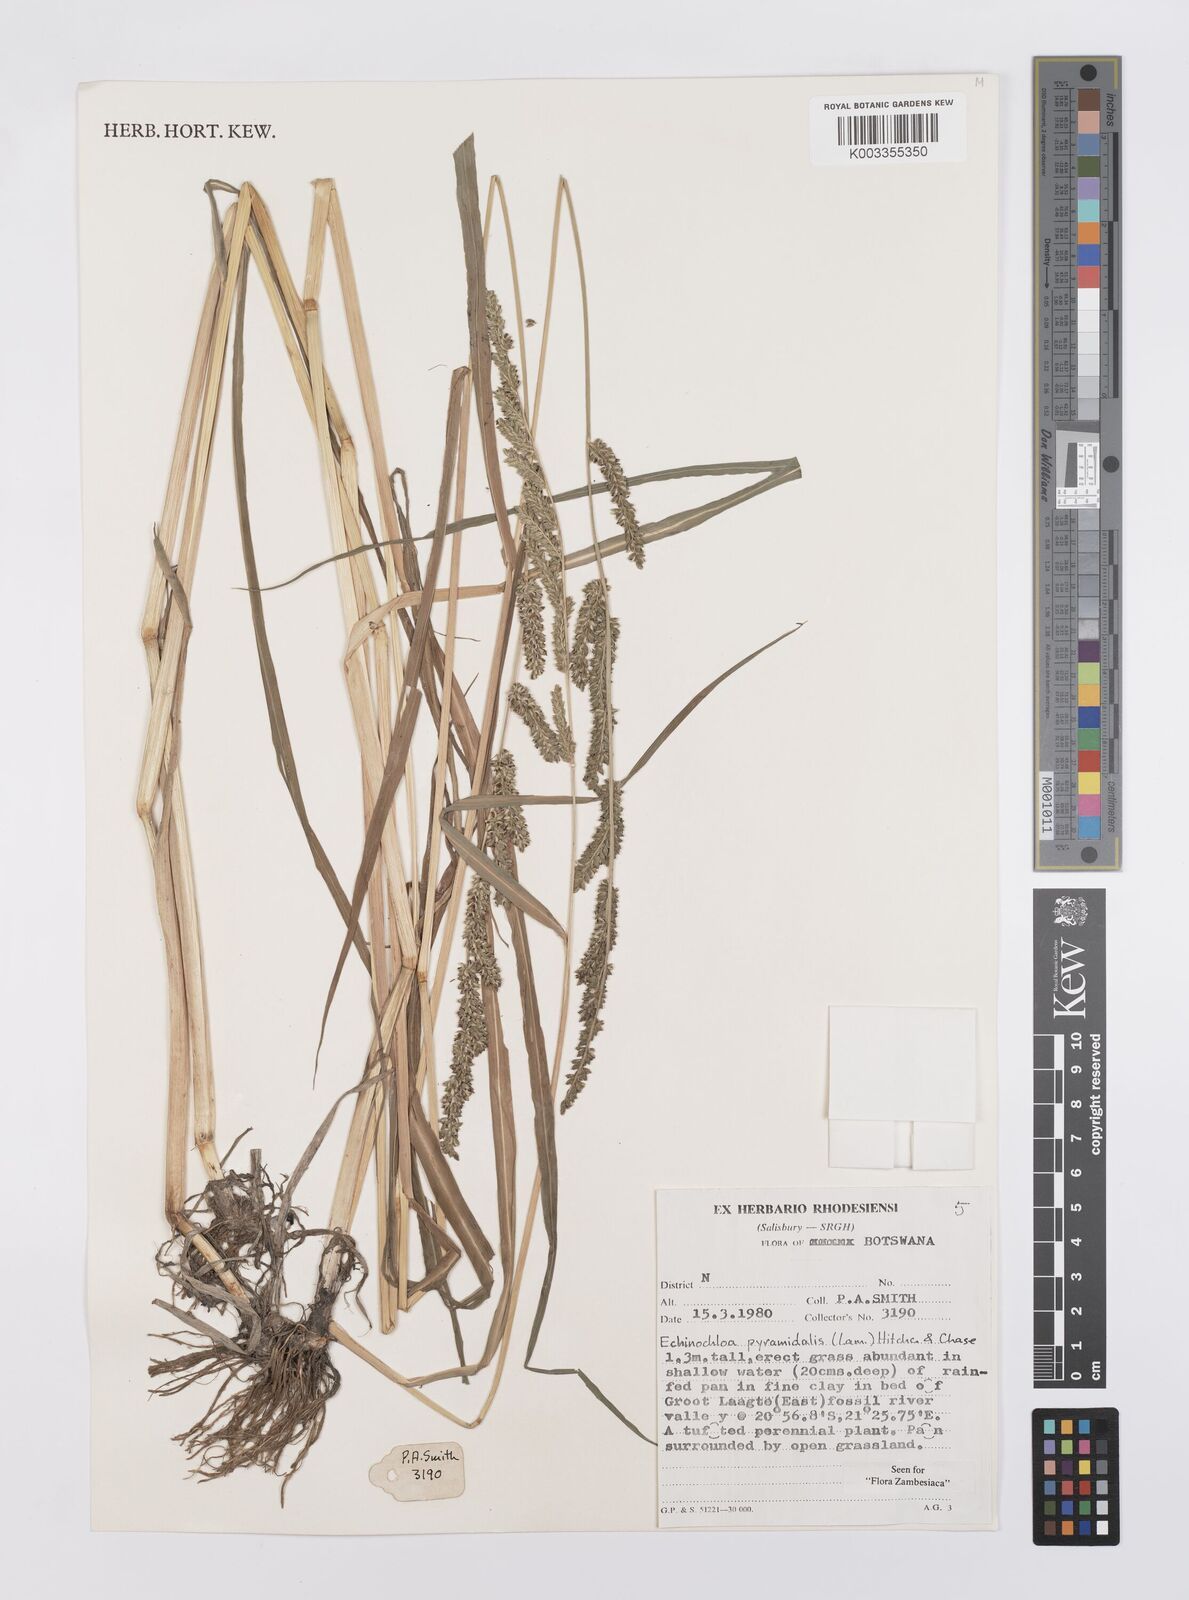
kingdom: Plantae
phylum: Tracheophyta
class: Liliopsida
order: Poales
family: Poaceae
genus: Echinochloa
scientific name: Echinochloa pyramidalis
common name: Antelope grass
